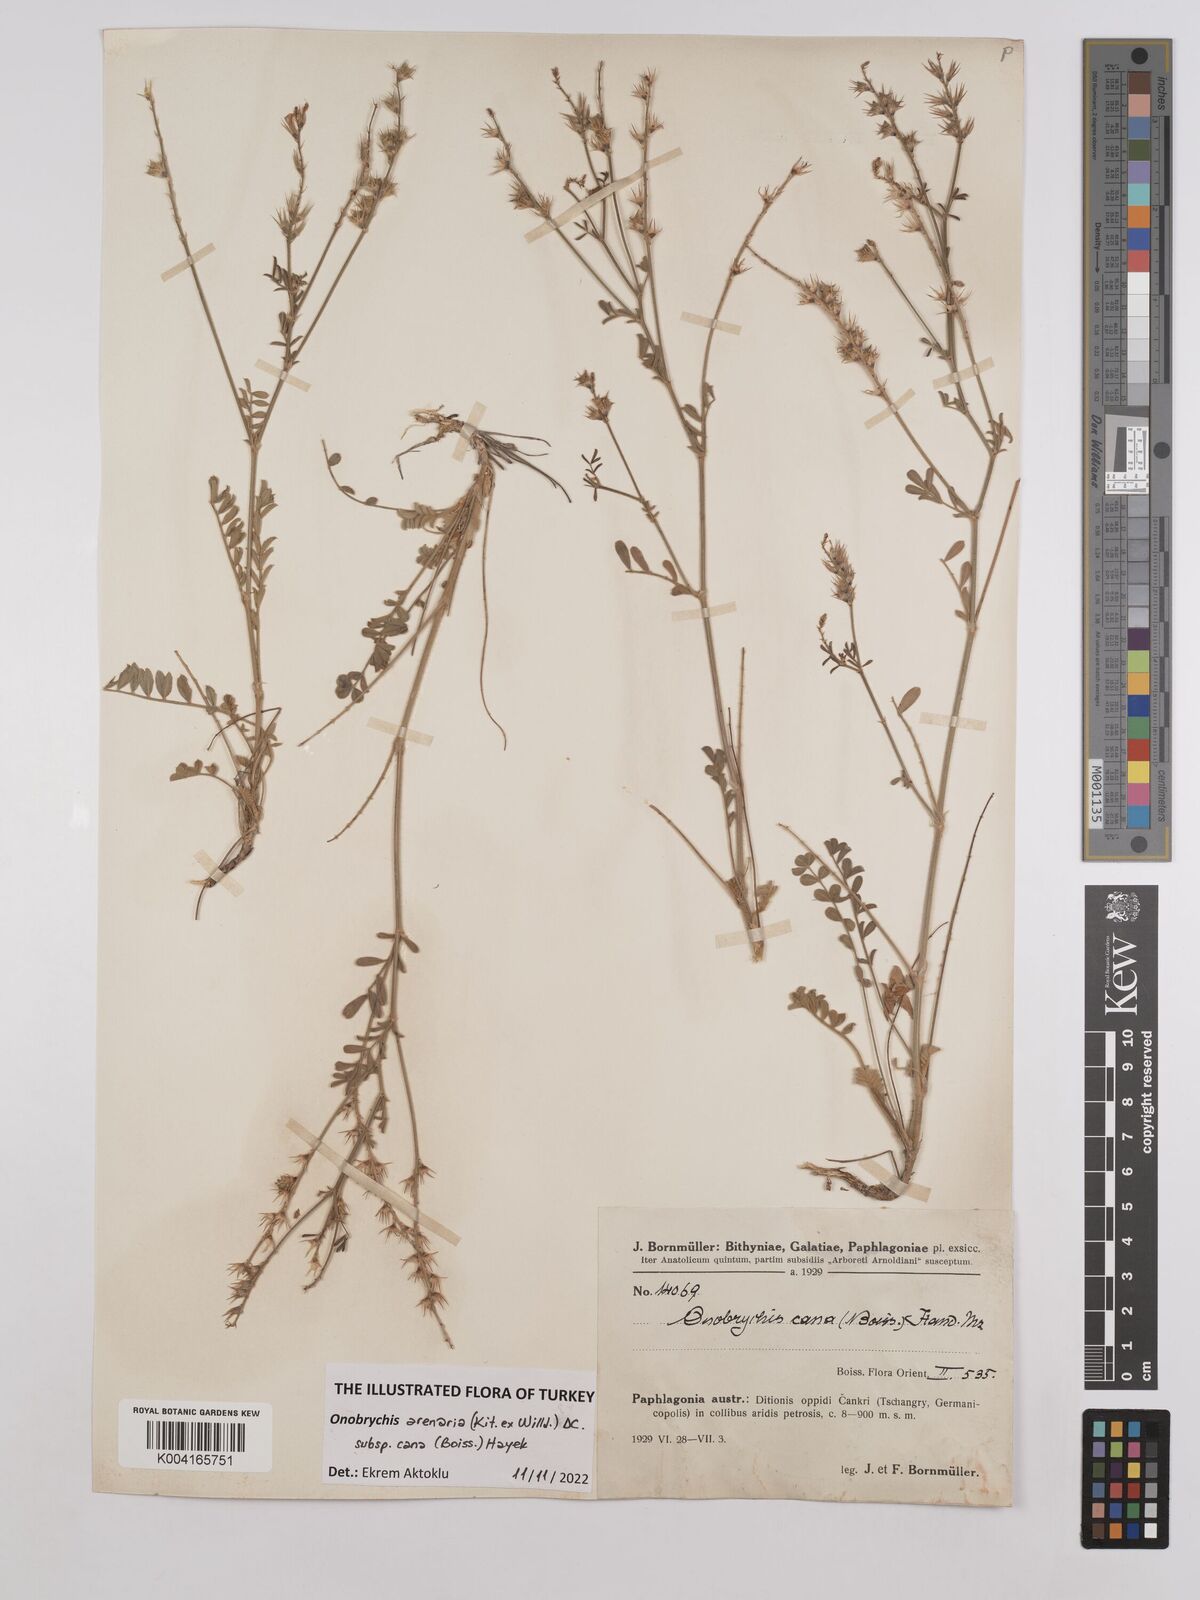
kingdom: Plantae
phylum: Tracheophyta
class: Magnoliopsida
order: Fabales
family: Fabaceae
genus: Onobrychis
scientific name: Onobrychis arenaria
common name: Sand esparcet
